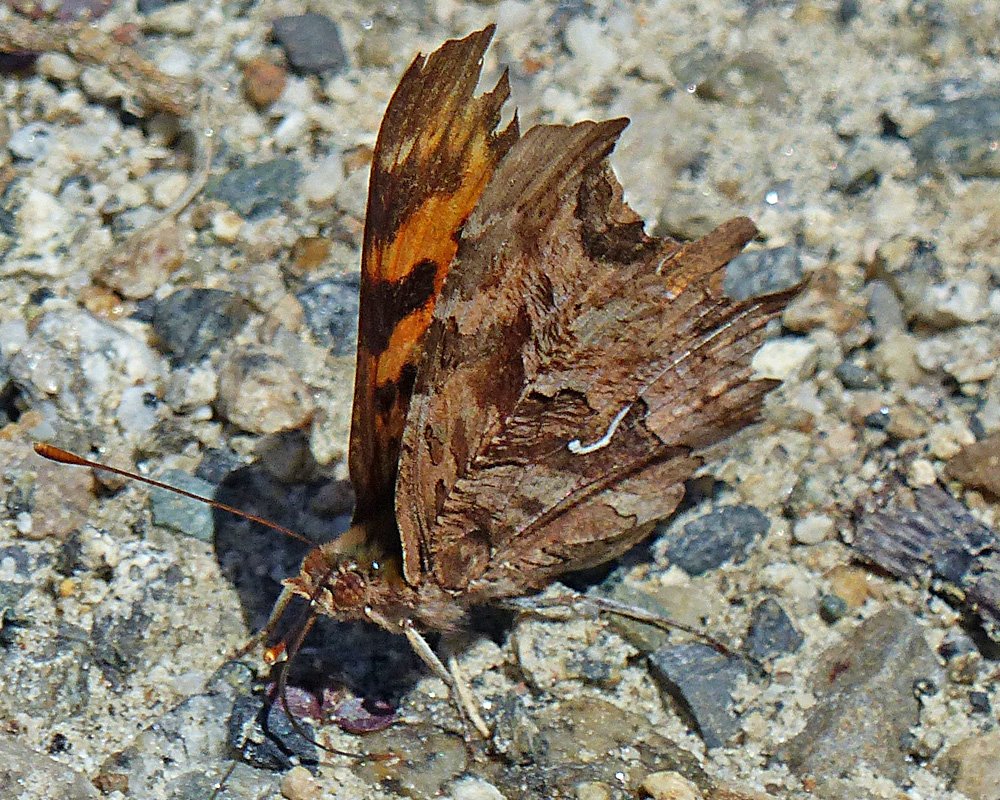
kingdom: Animalia
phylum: Arthropoda
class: Insecta
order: Lepidoptera
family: Nymphalidae
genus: Polygonia
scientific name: Polygonia satyrus
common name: Satyr Comma
